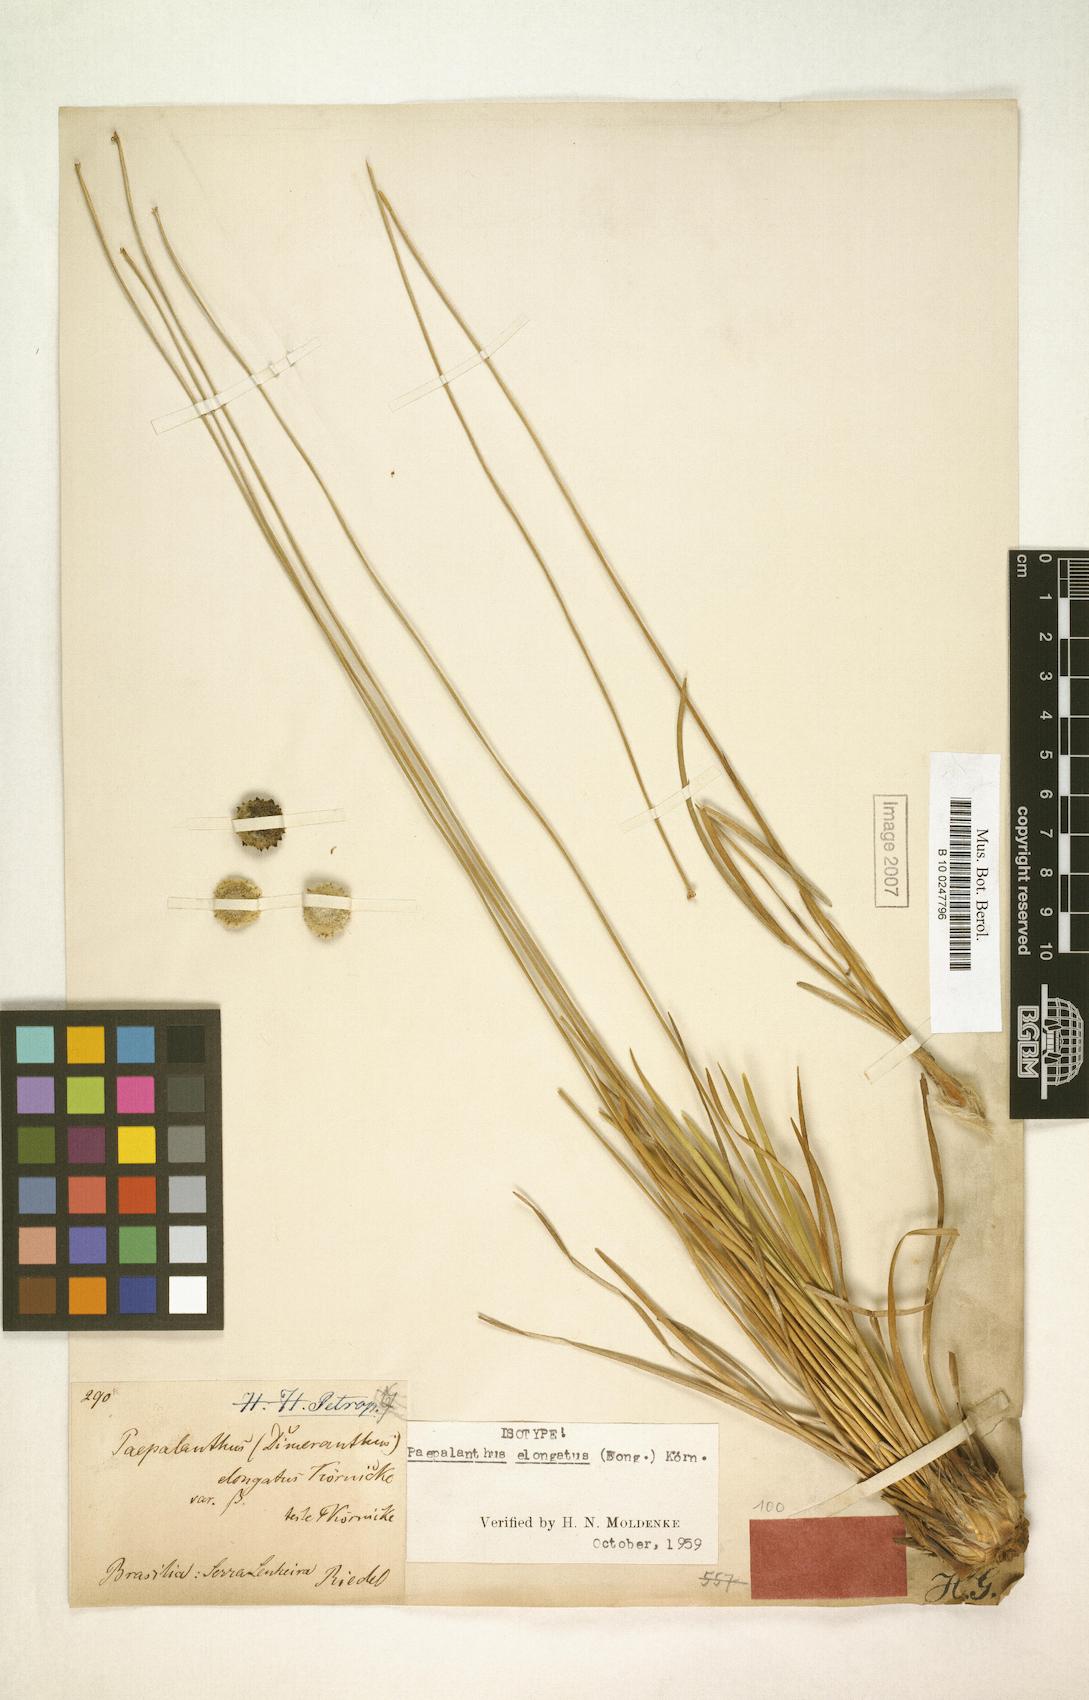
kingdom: Plantae
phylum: Tracheophyta
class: Liliopsida
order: Poales
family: Eriocaulaceae
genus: Paepalanthus
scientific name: Paepalanthus elongatus
